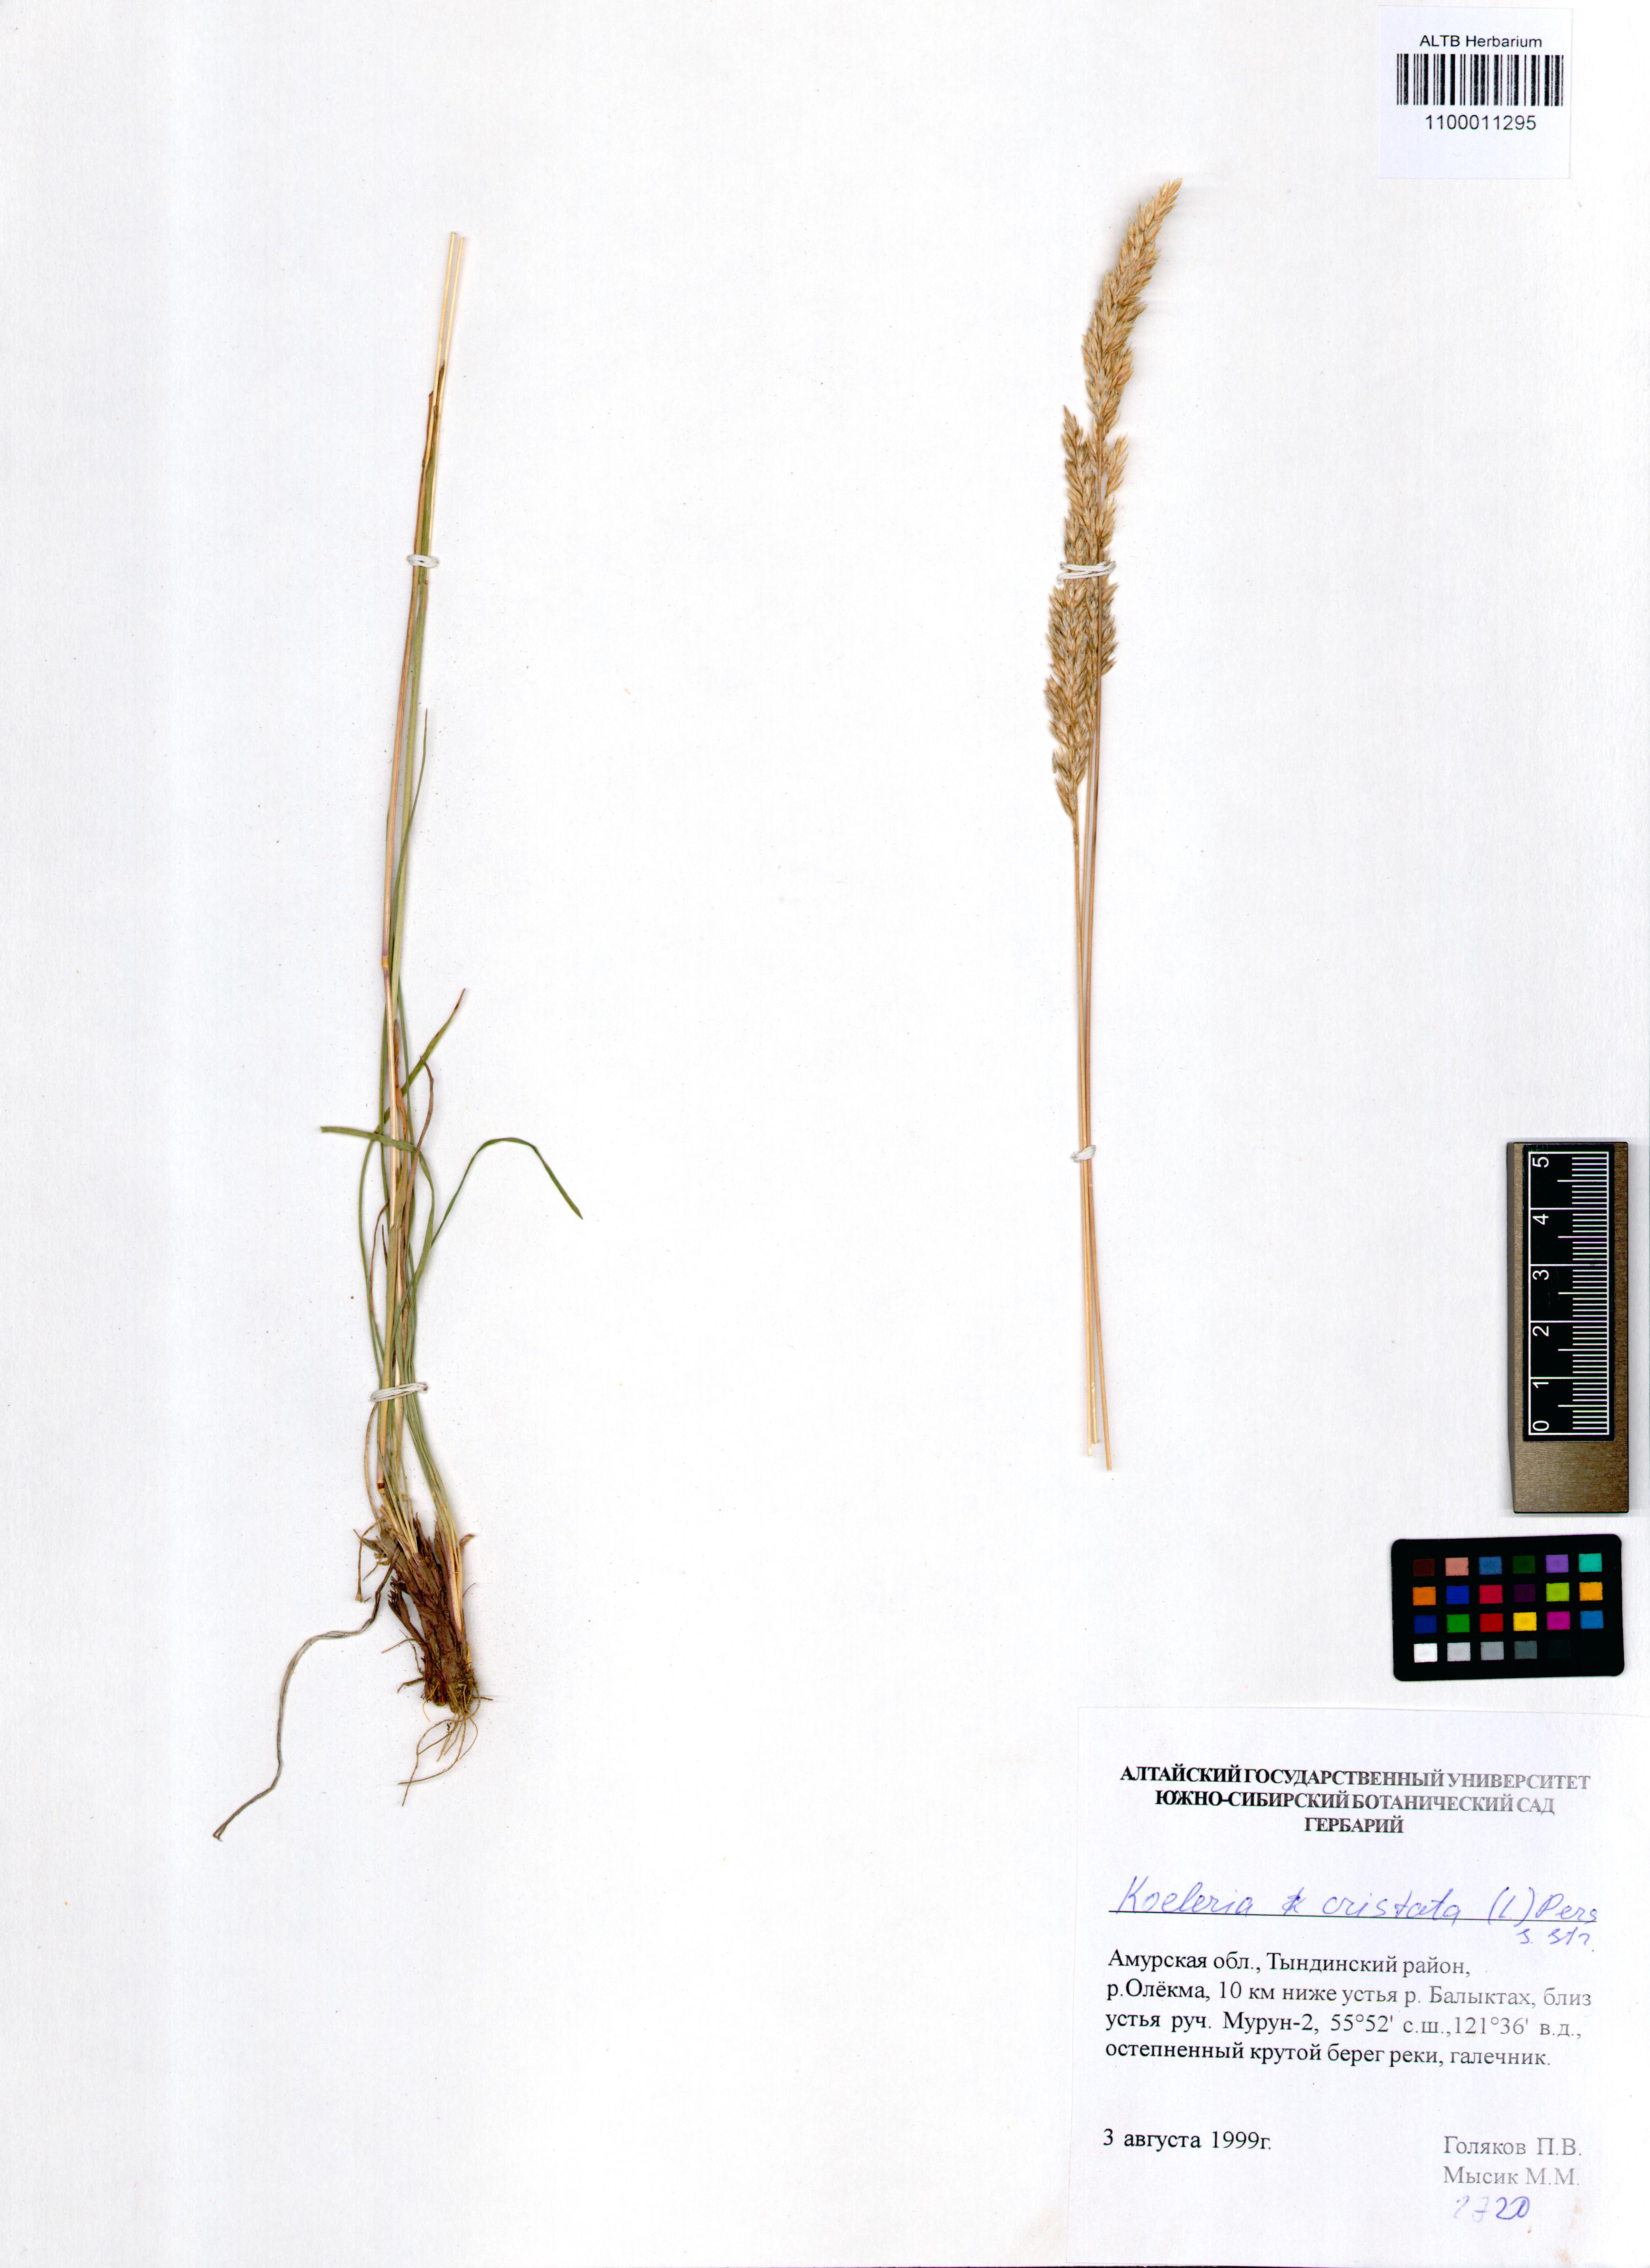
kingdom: Plantae
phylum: Tracheophyta
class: Liliopsida
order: Poales
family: Poaceae
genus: Koeleria
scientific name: Koeleria pyramidata
